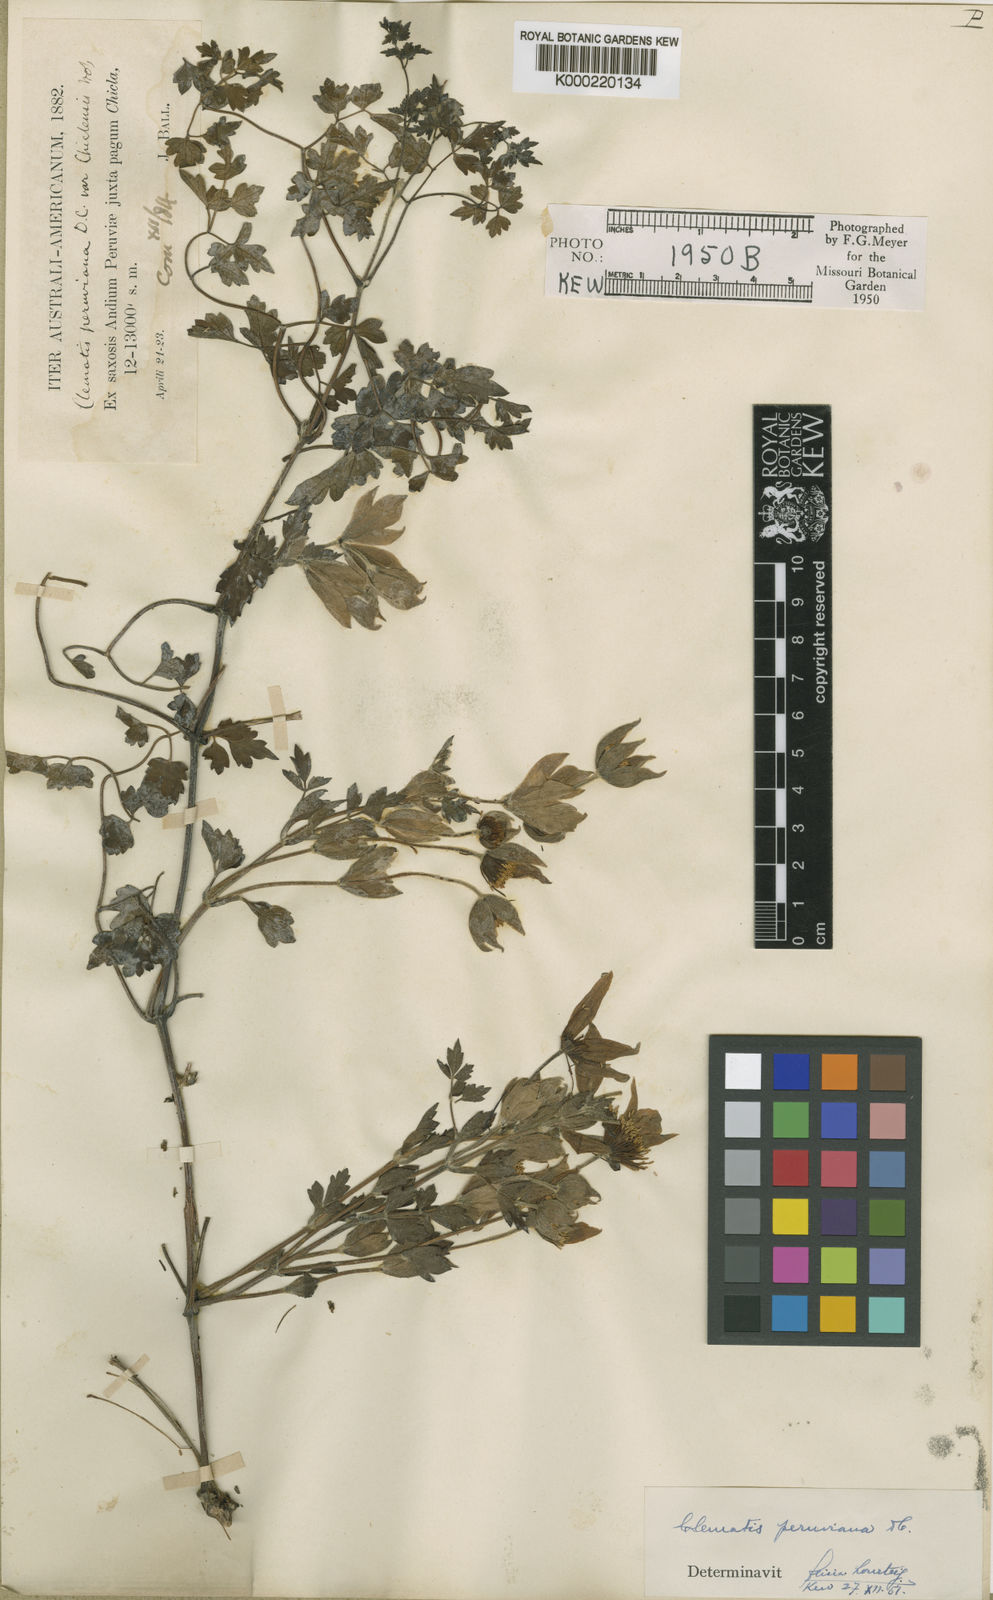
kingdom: Plantae
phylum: Tracheophyta
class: Magnoliopsida
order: Ranunculales
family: Ranunculaceae
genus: Clematis
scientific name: Clematis peruviana
